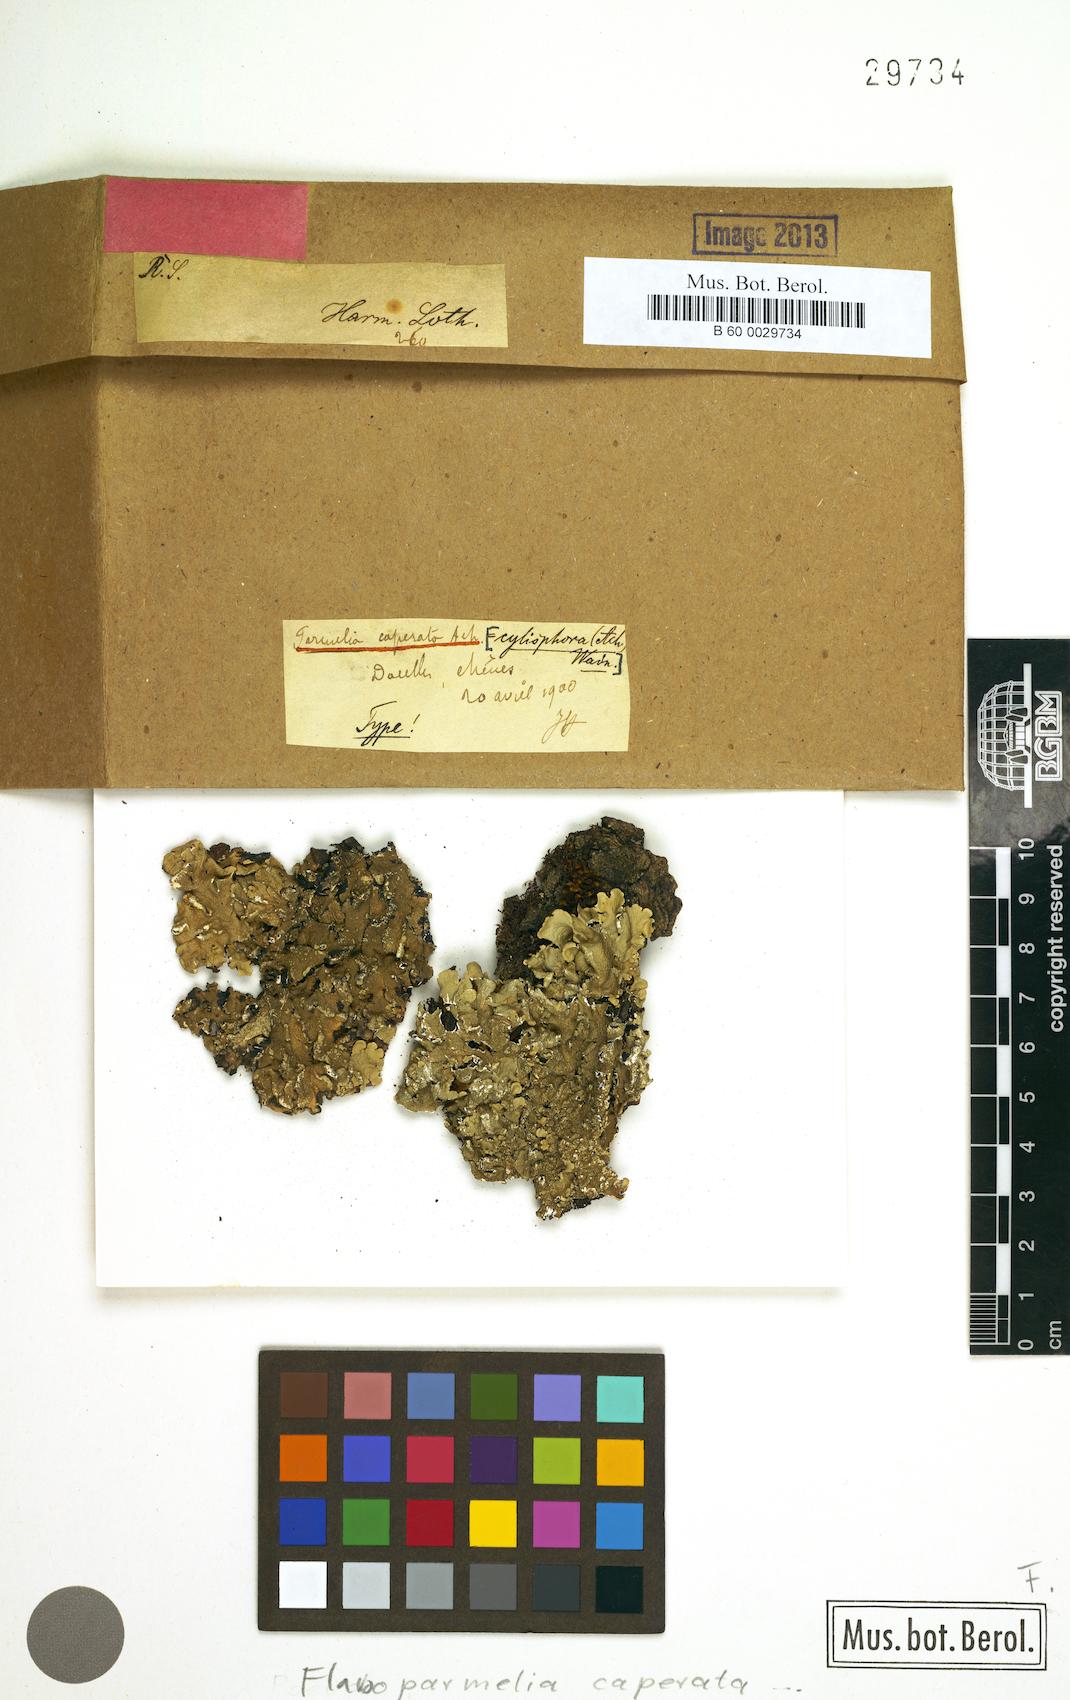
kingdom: Fungi
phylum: Ascomycota
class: Lecanoromycetes
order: Lecanorales
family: Parmeliaceae
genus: Flavoparmelia
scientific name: Flavoparmelia caperata
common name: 40-mile per hour lichen
